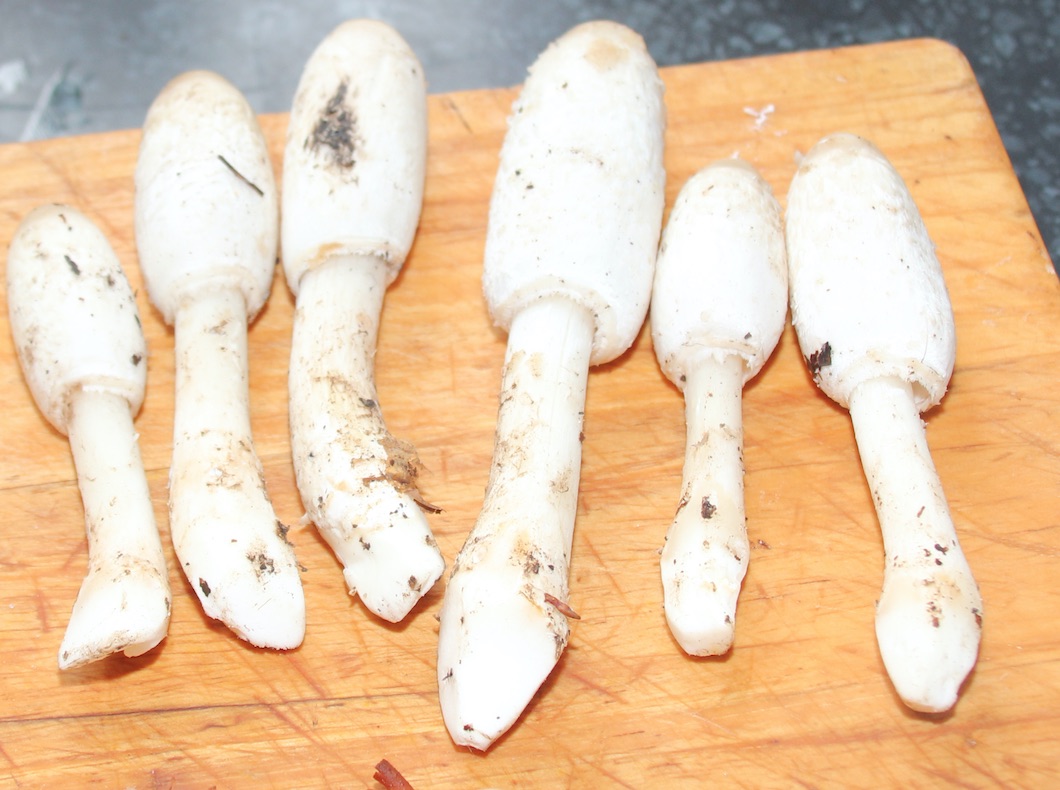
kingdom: Fungi
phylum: Basidiomycota
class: Agaricomycetes
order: Agaricales
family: Agaricaceae
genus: Coprinus
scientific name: Coprinus comatus
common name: stor parykhat
